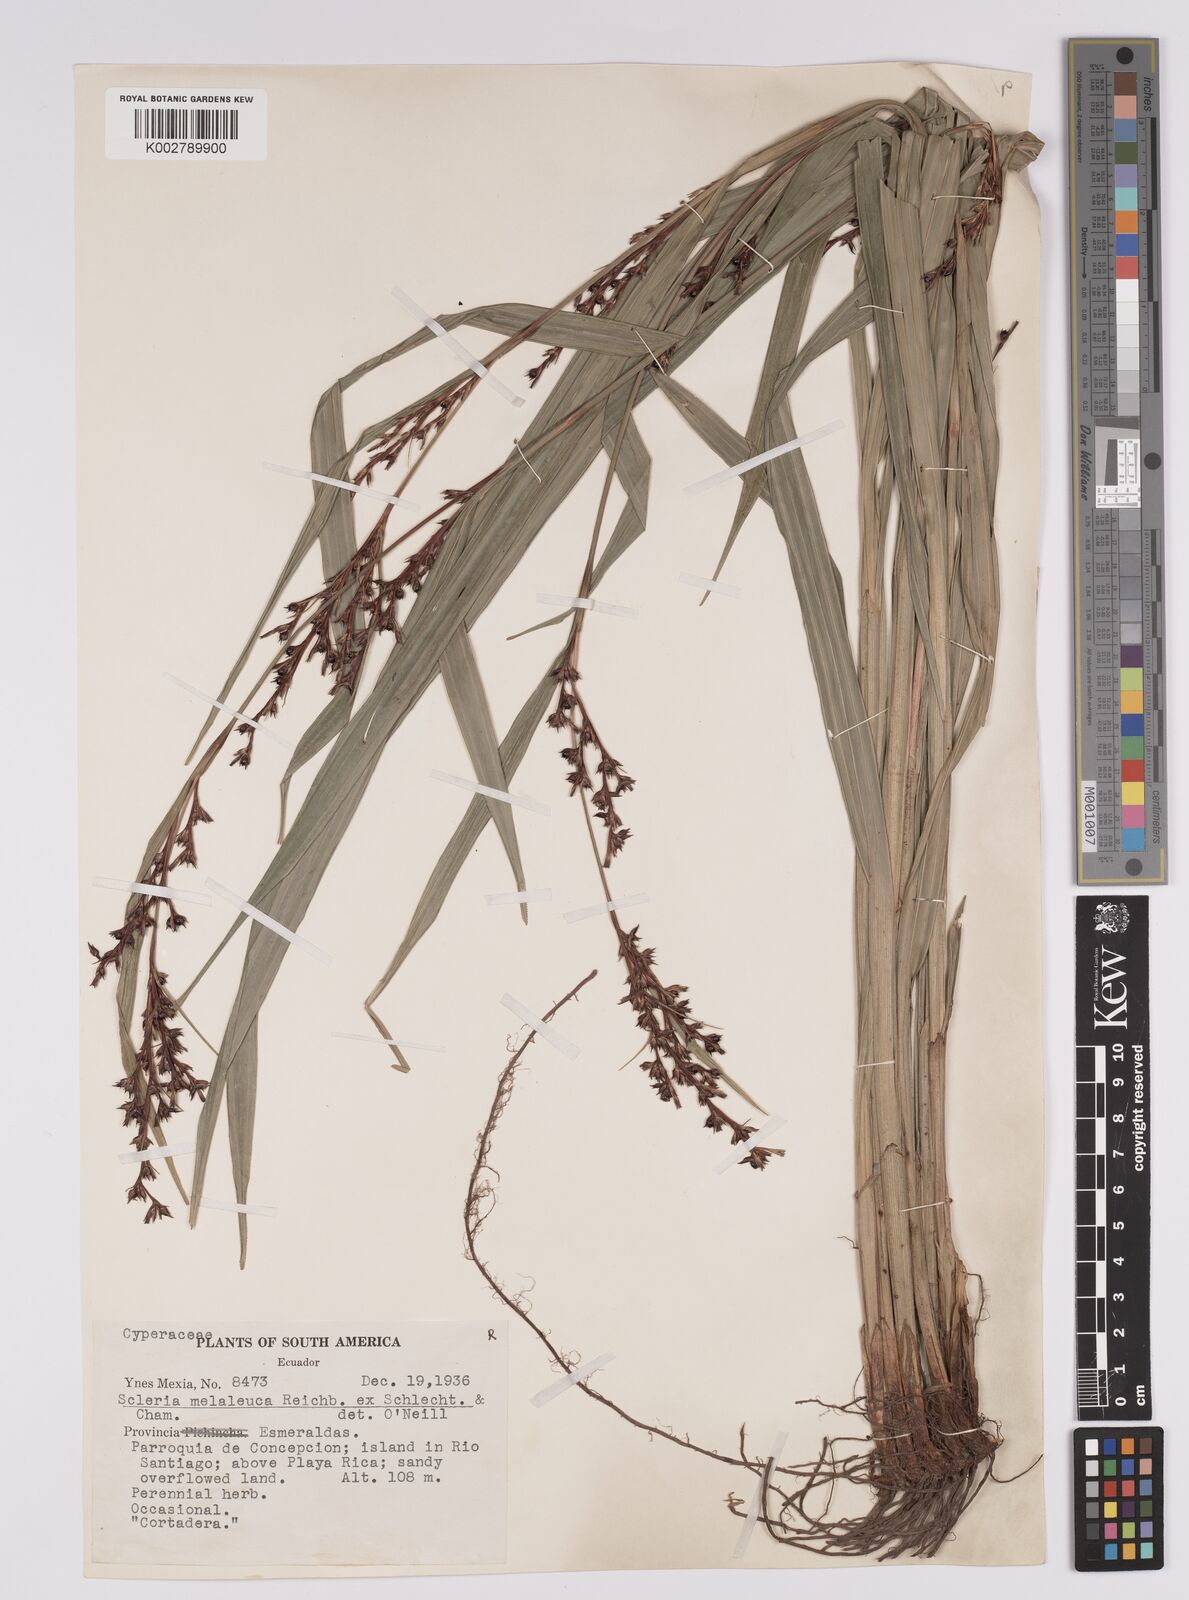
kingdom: Plantae
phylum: Tracheophyta
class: Liliopsida
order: Poales
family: Cyperaceae
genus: Scleria
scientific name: Scleria gaertneri
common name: Cortadera blanca
